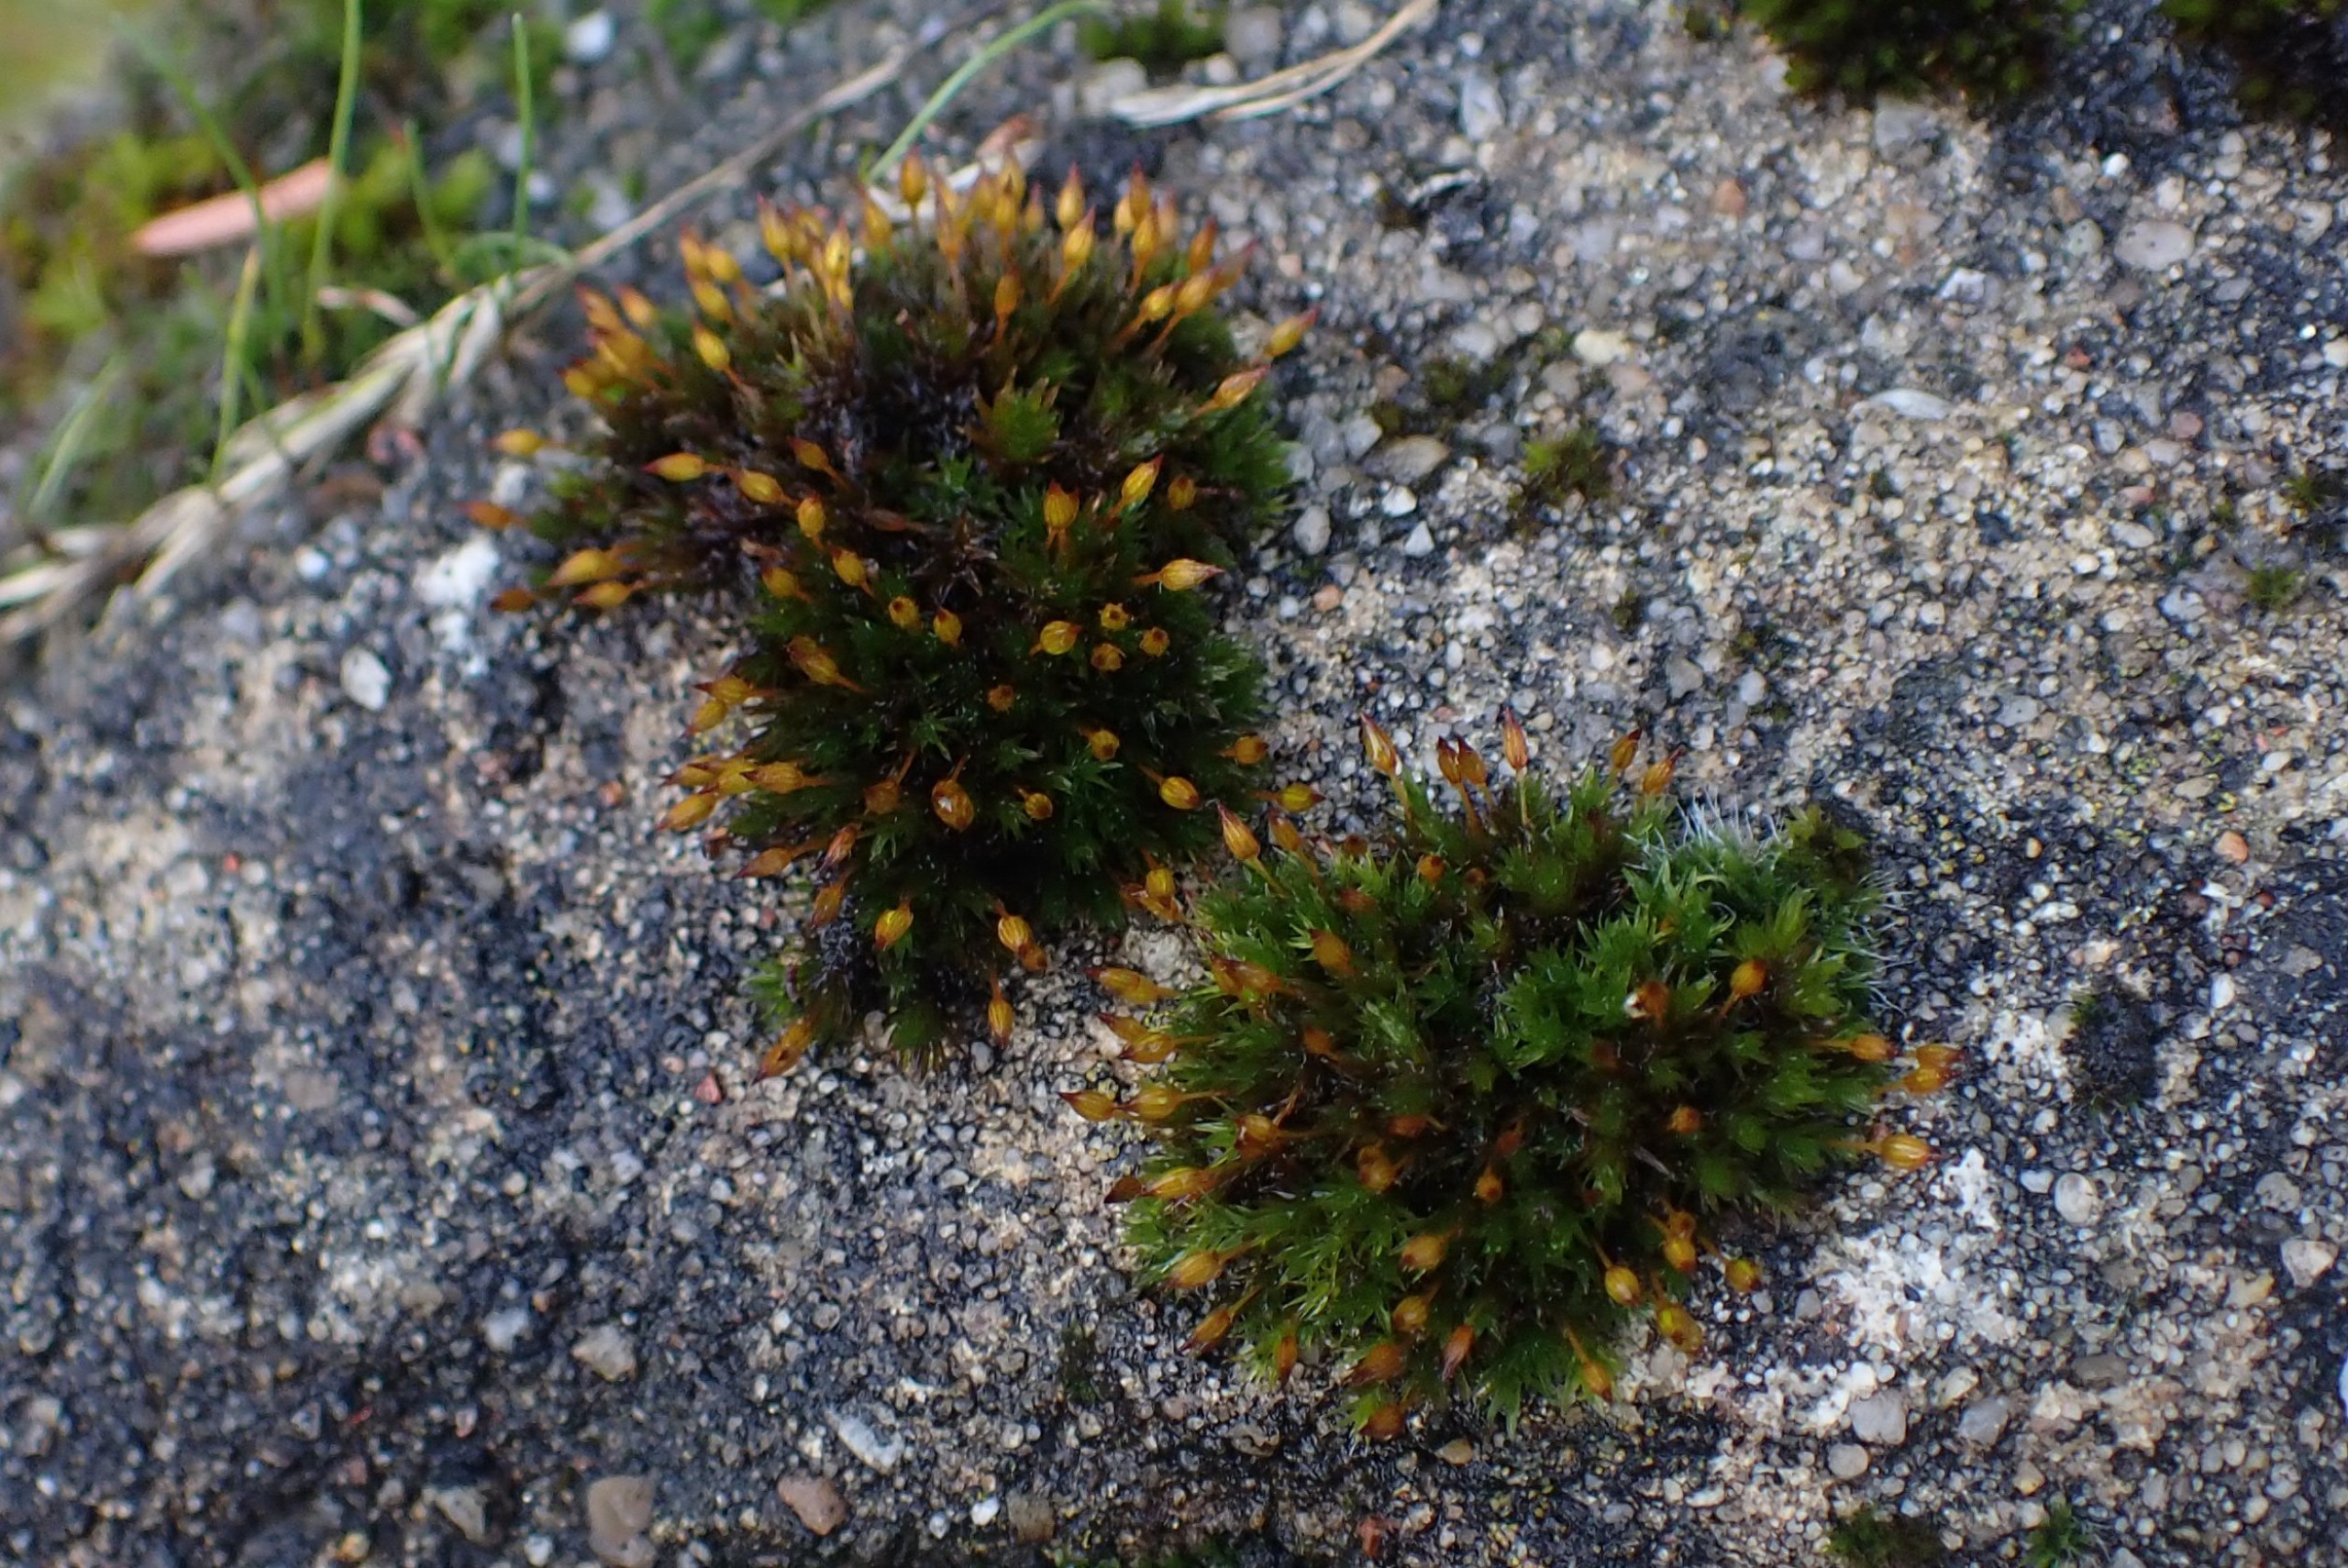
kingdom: Plantae
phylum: Bryophyta
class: Bryopsida
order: Orthotrichales
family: Orthotrichaceae
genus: Orthotrichum
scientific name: Orthotrichum anomalum
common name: Mørk furehætte
